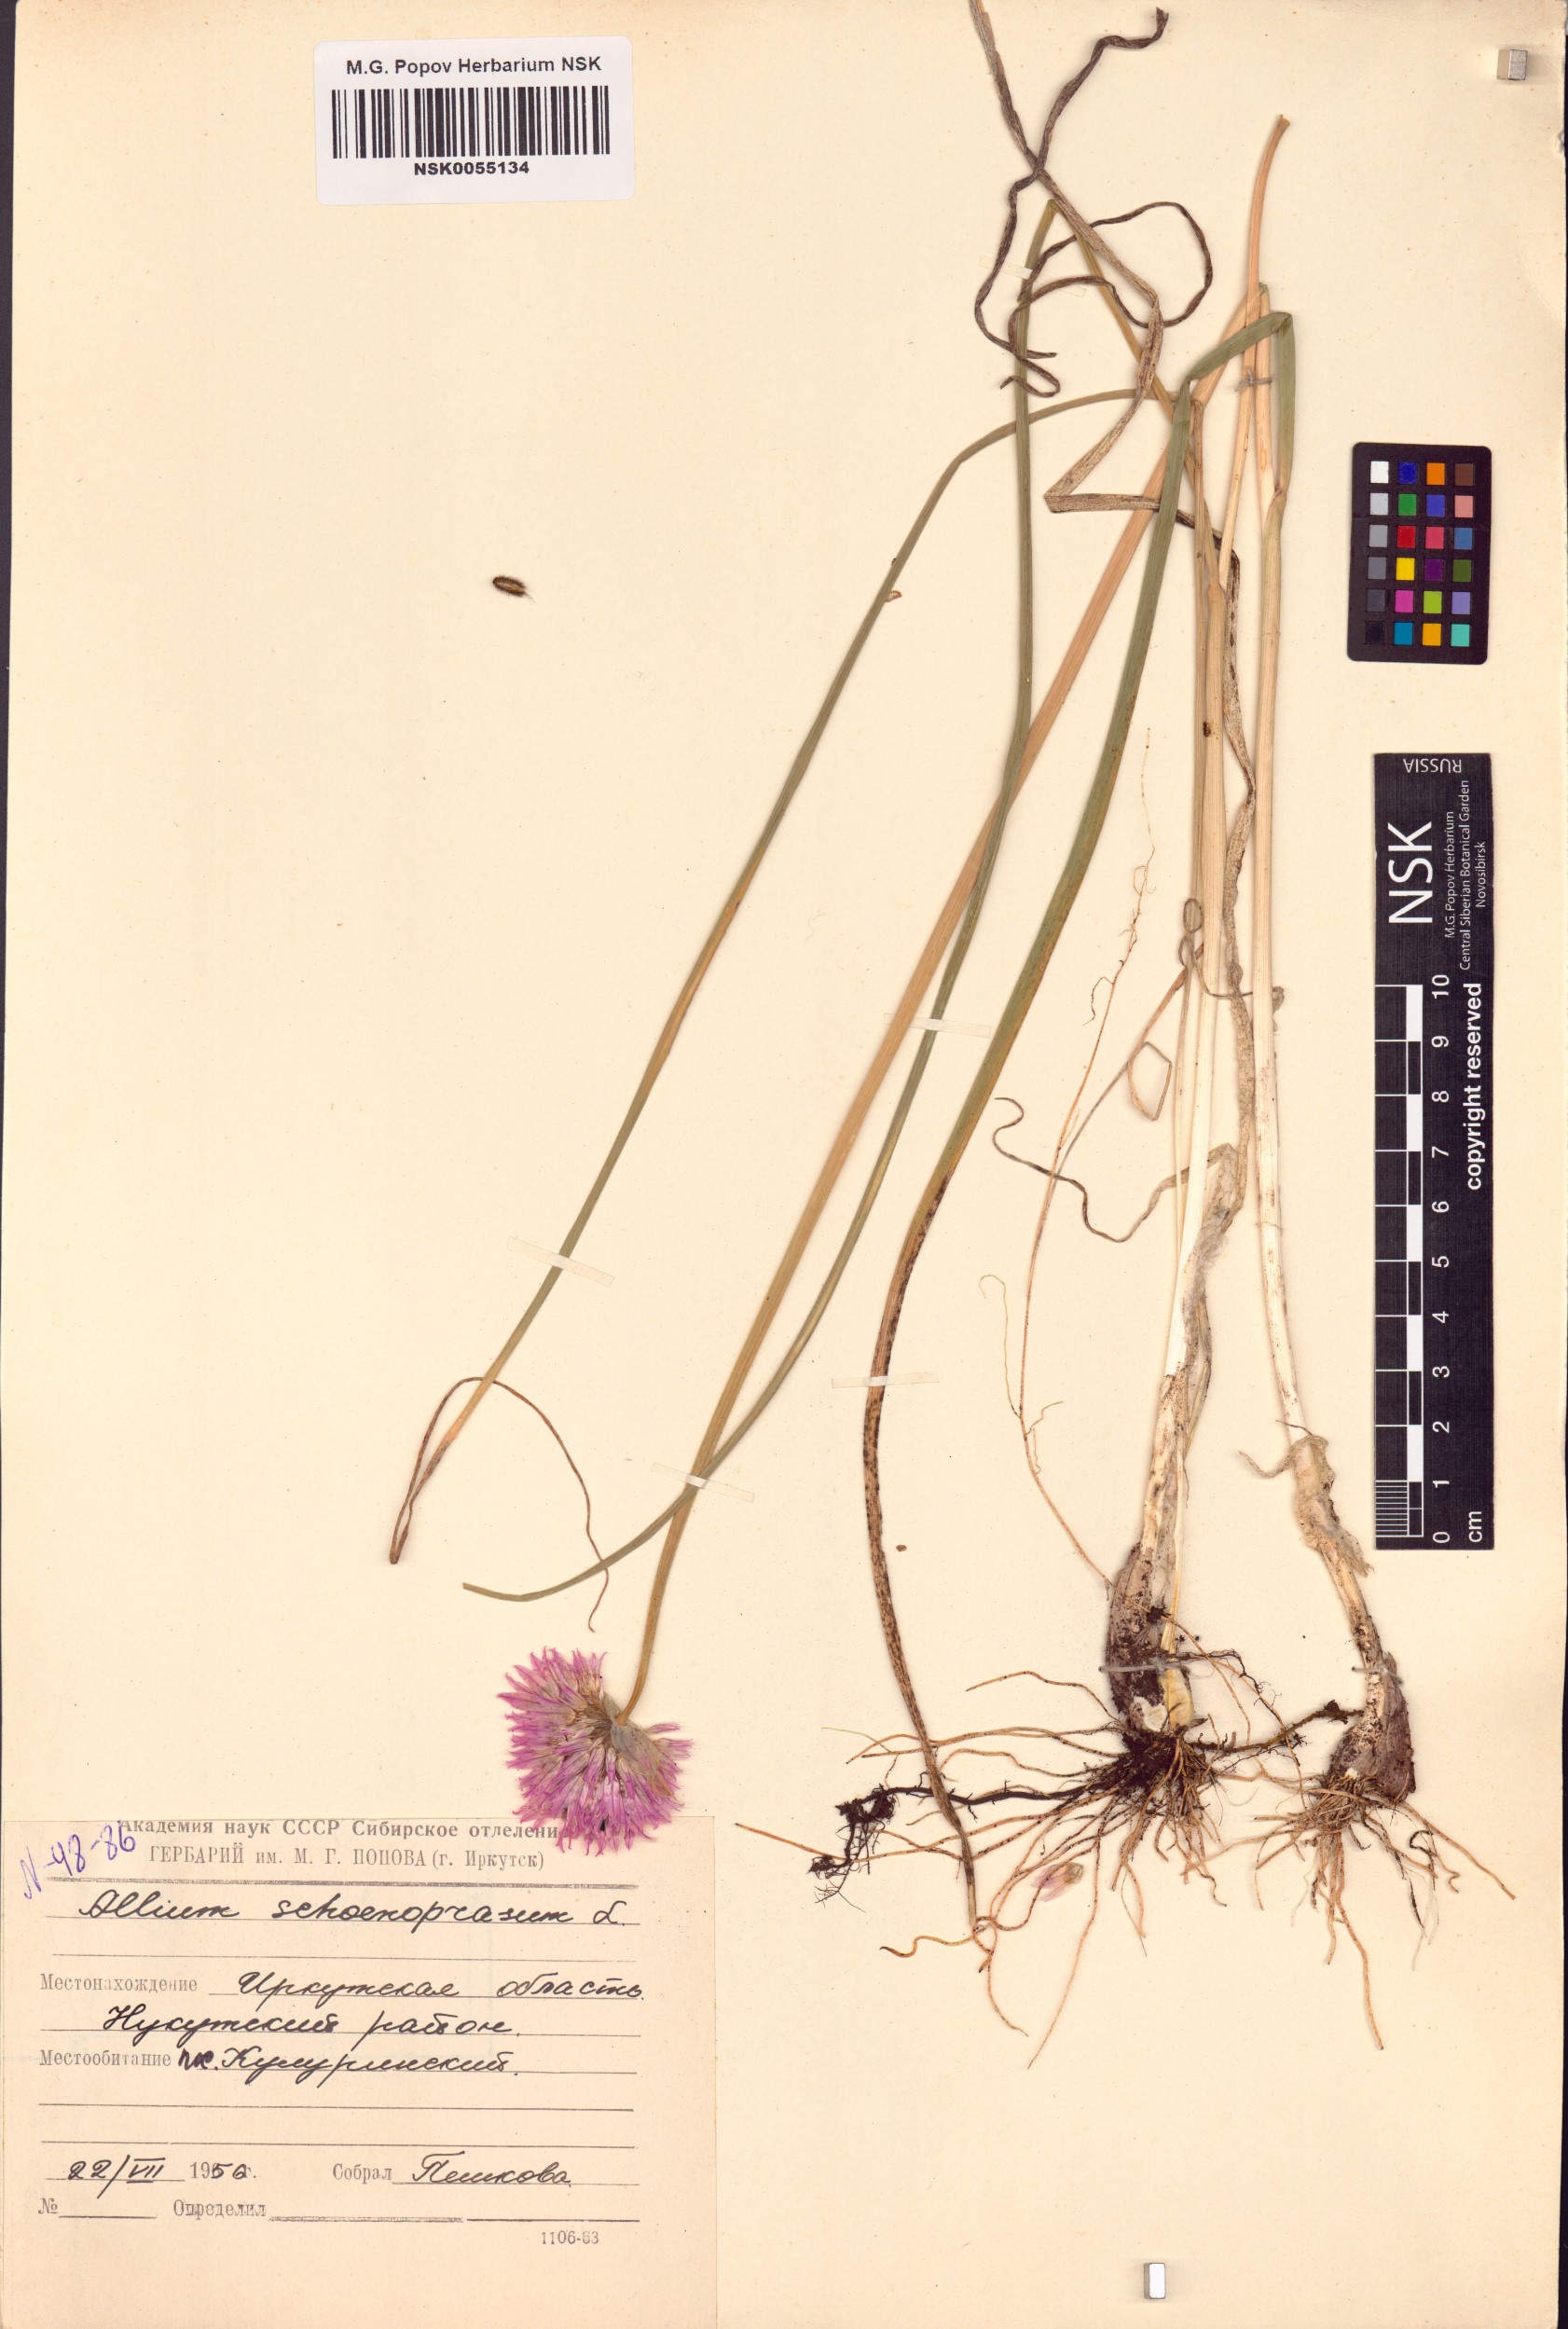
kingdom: Plantae
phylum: Tracheophyta
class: Liliopsida
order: Asparagales
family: Amaryllidaceae
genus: Allium
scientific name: Allium schoenoprasum
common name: Chives
